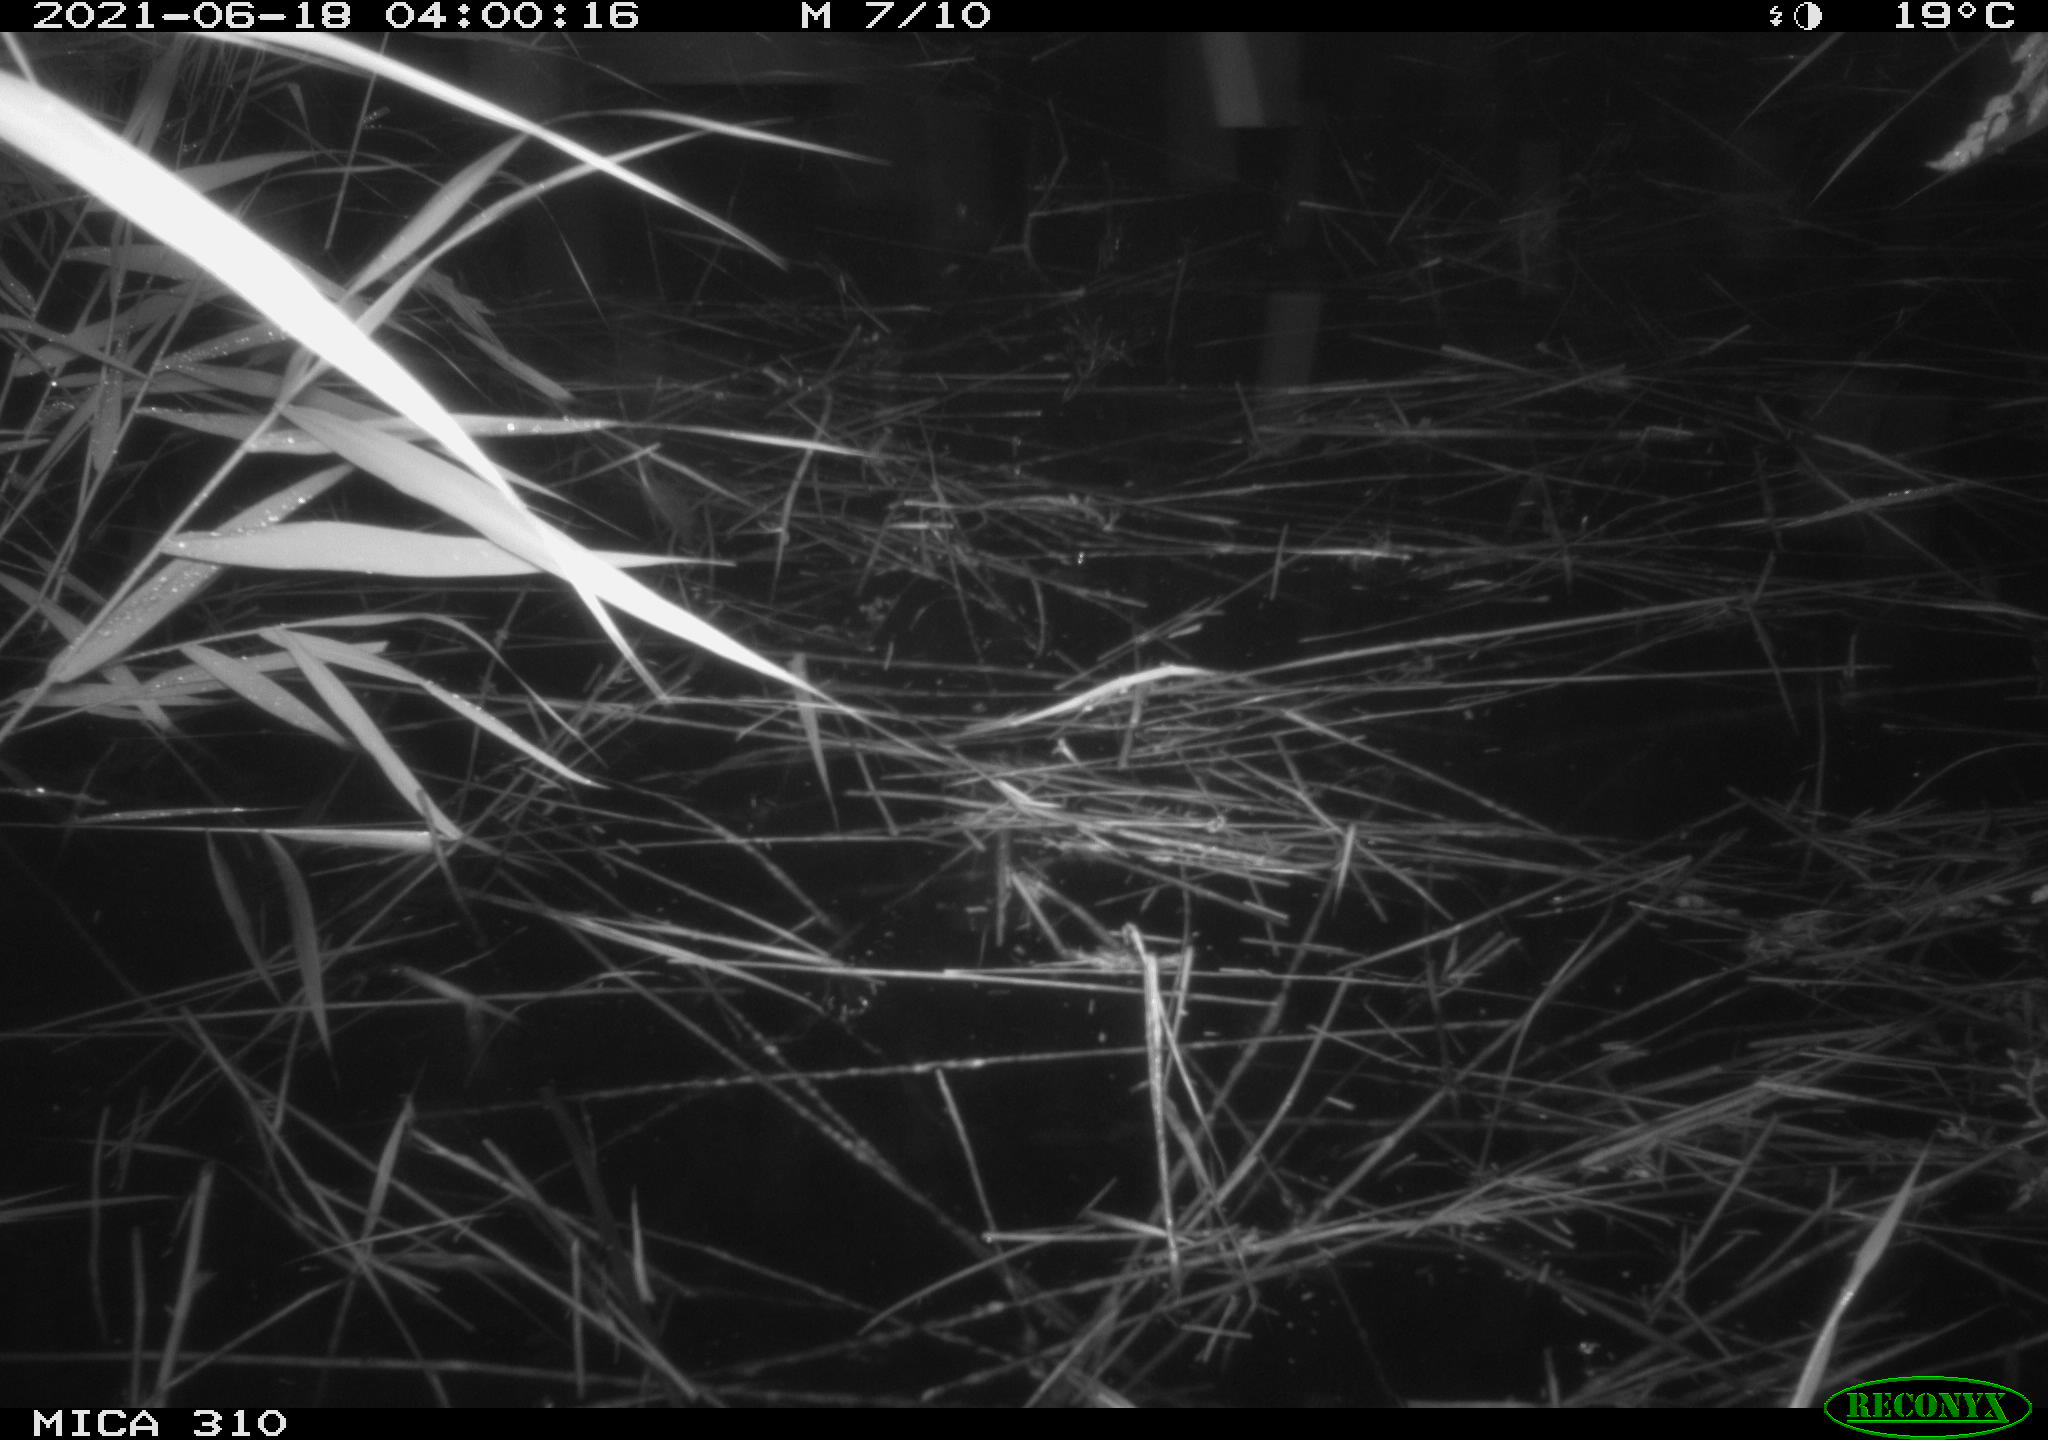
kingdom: Animalia
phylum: Chordata
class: Aves
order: Anseriformes
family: Anatidae
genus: Anas
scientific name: Anas
